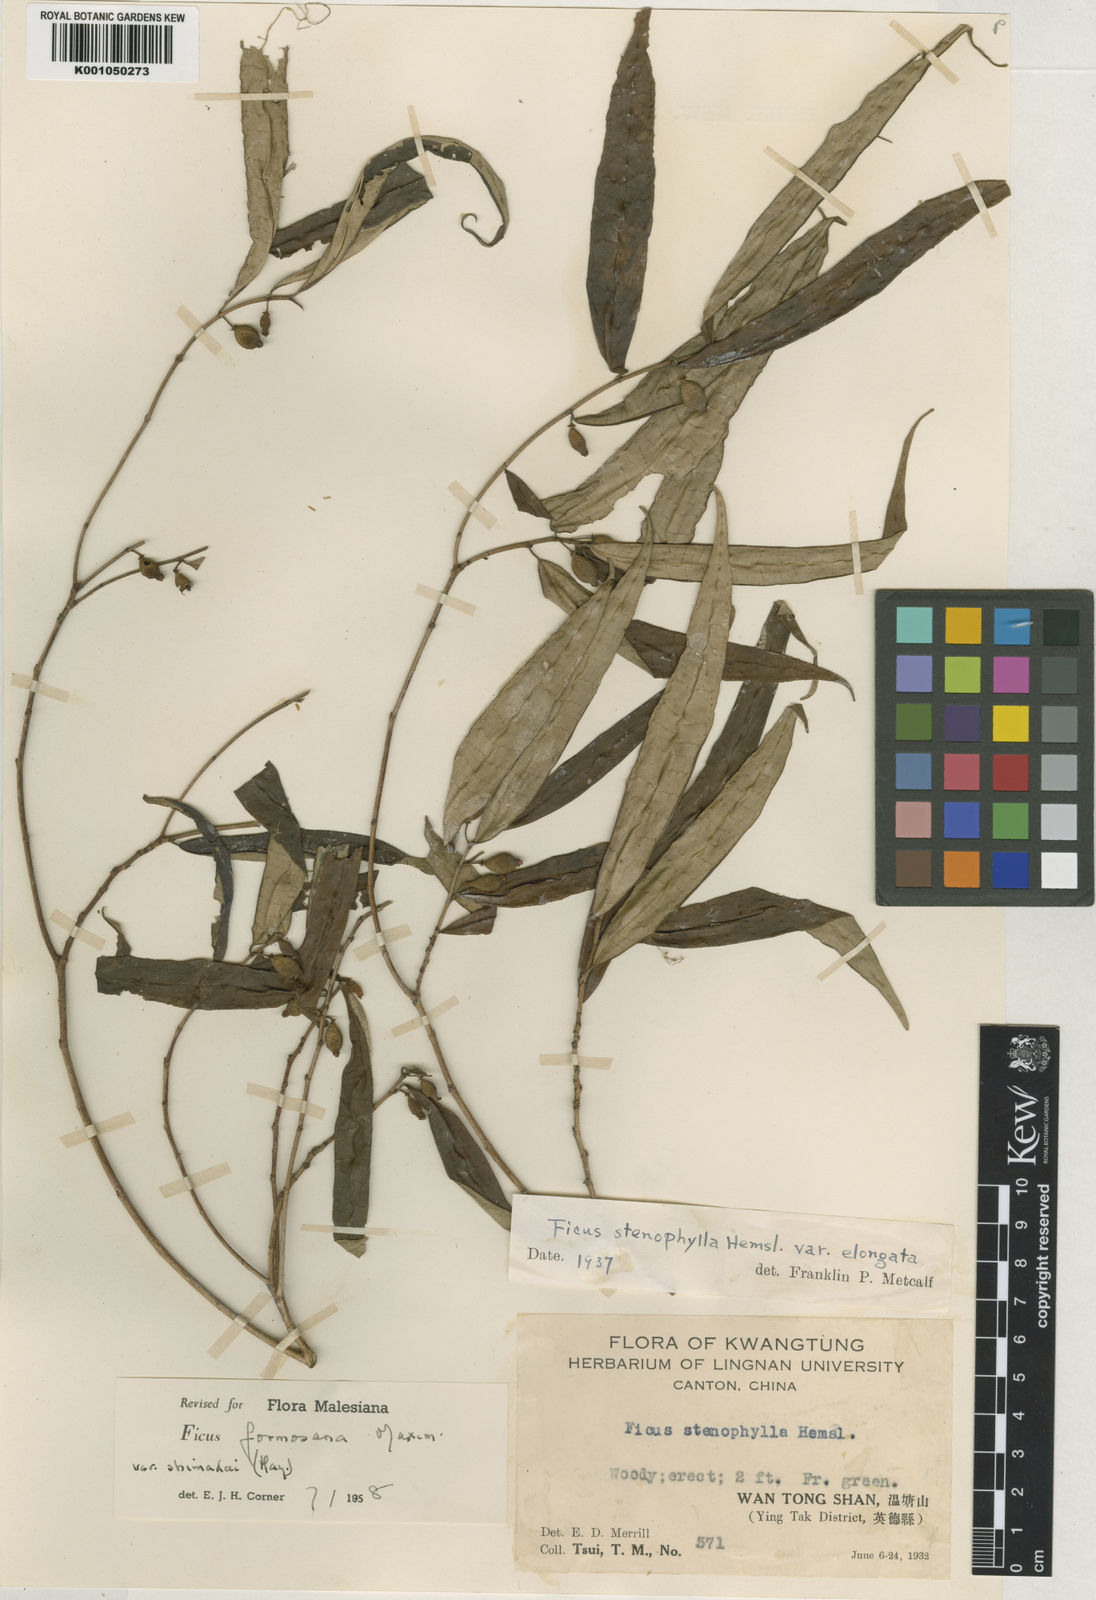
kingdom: Plantae
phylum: Tracheophyta
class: Magnoliopsida
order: Rosales
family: Moraceae
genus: Ficus
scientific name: Ficus formosana
